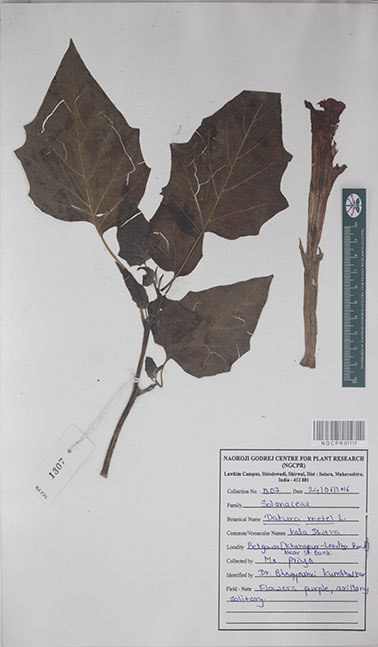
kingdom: Plantae
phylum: Tracheophyta
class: Magnoliopsida
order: Solanales
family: Solanaceae
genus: Datura
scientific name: Datura metel
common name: Jimsonweed
